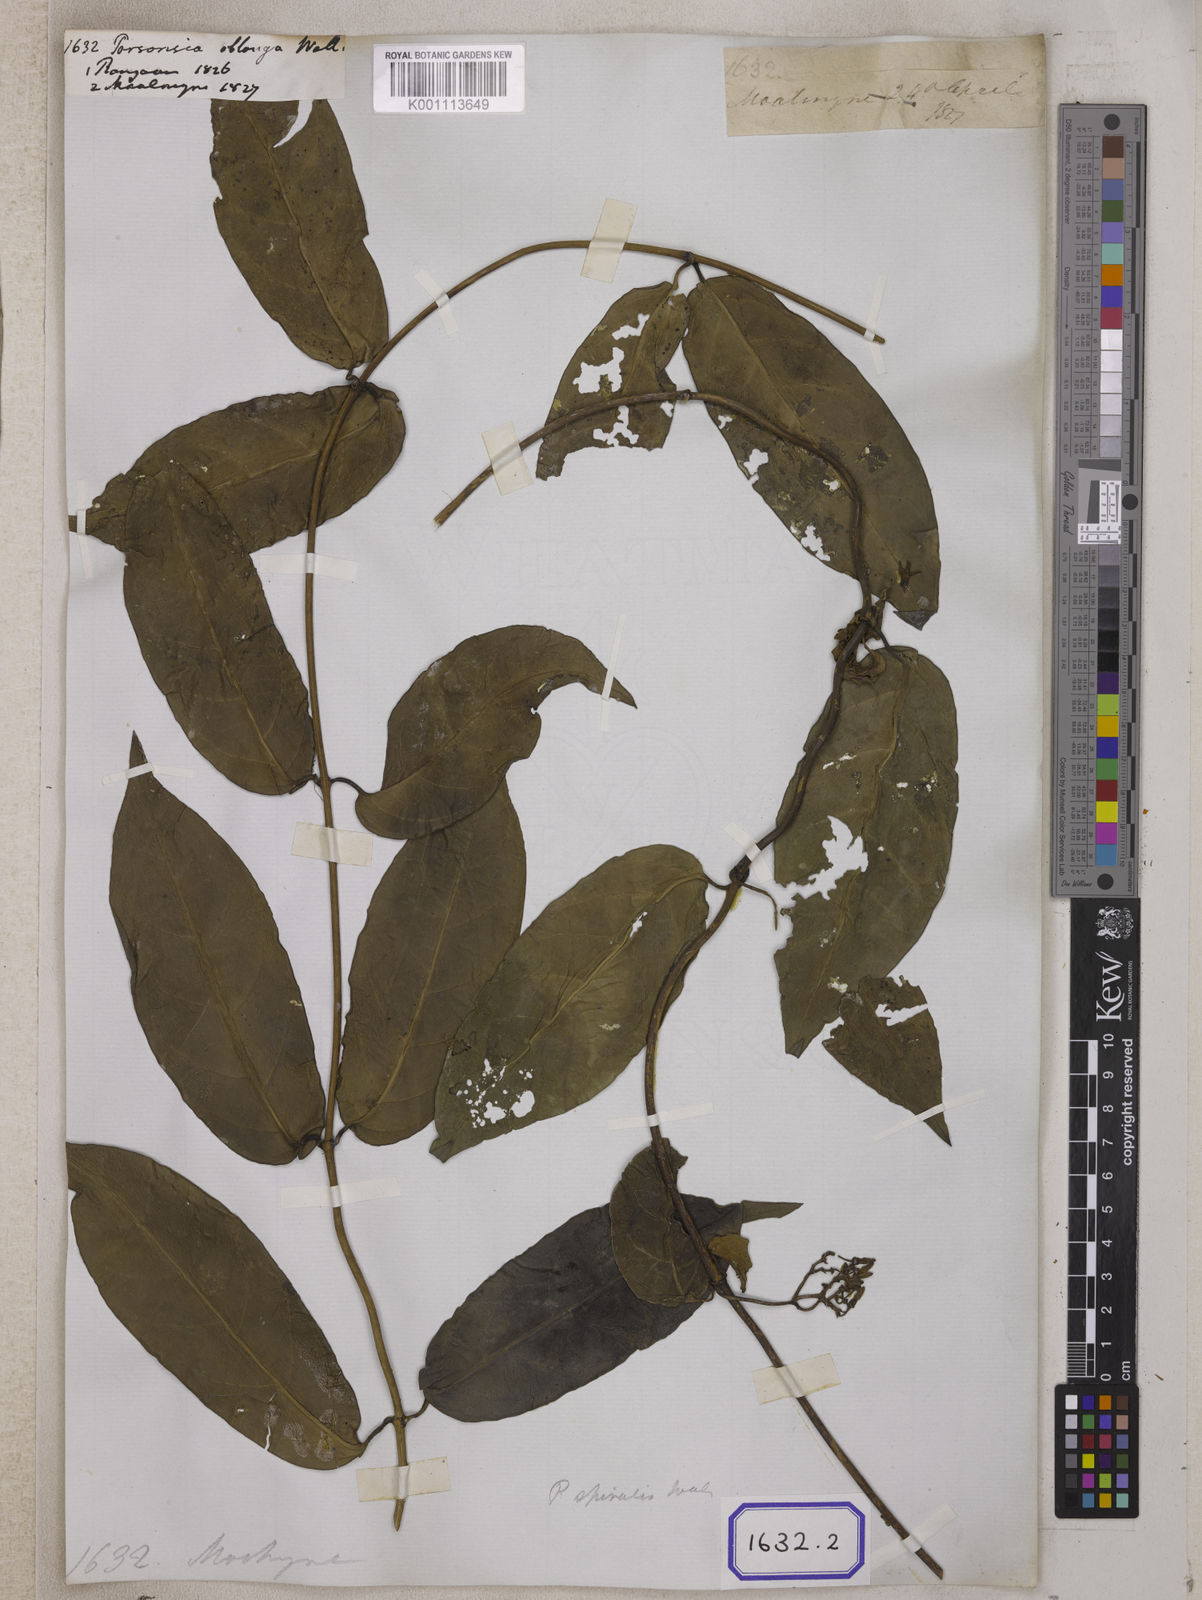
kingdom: Plantae
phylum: Tracheophyta
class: Magnoliopsida
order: Gentianales
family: Apocynaceae
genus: Parsonsia
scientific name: Parsonsia
